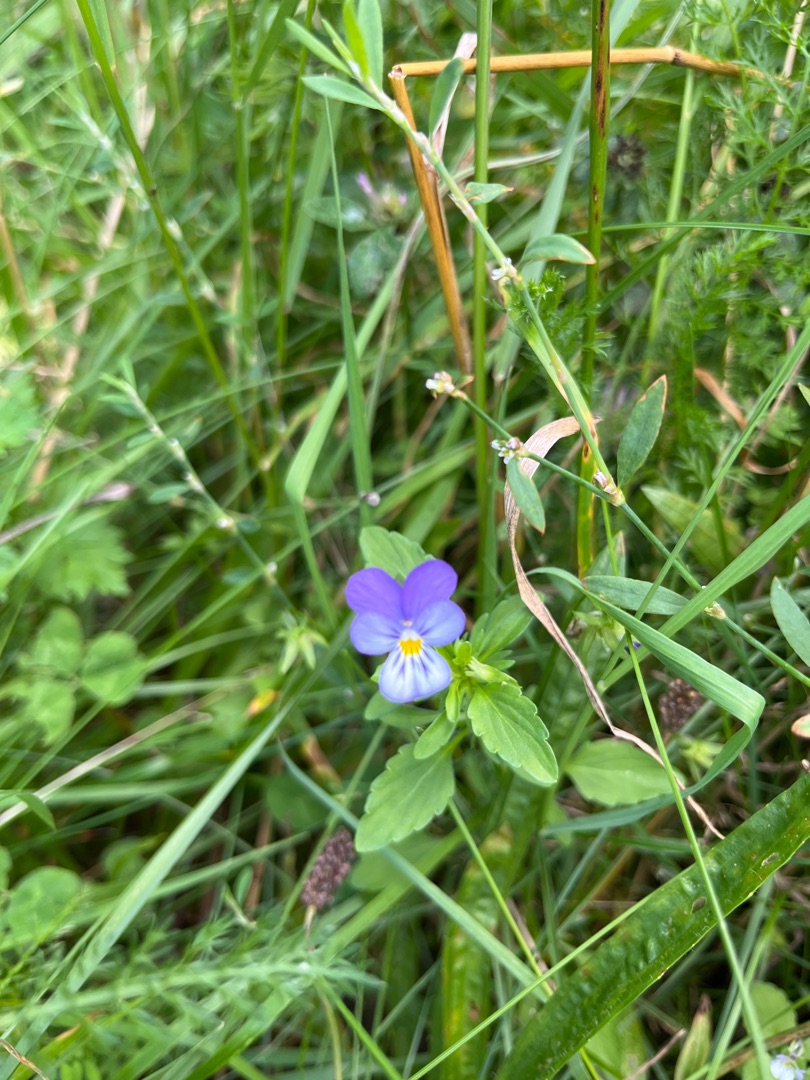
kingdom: Plantae
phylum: Tracheophyta
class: Magnoliopsida
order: Malpighiales
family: Violaceae
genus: Viola
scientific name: Viola tricolor
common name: Stedmoderblomst
